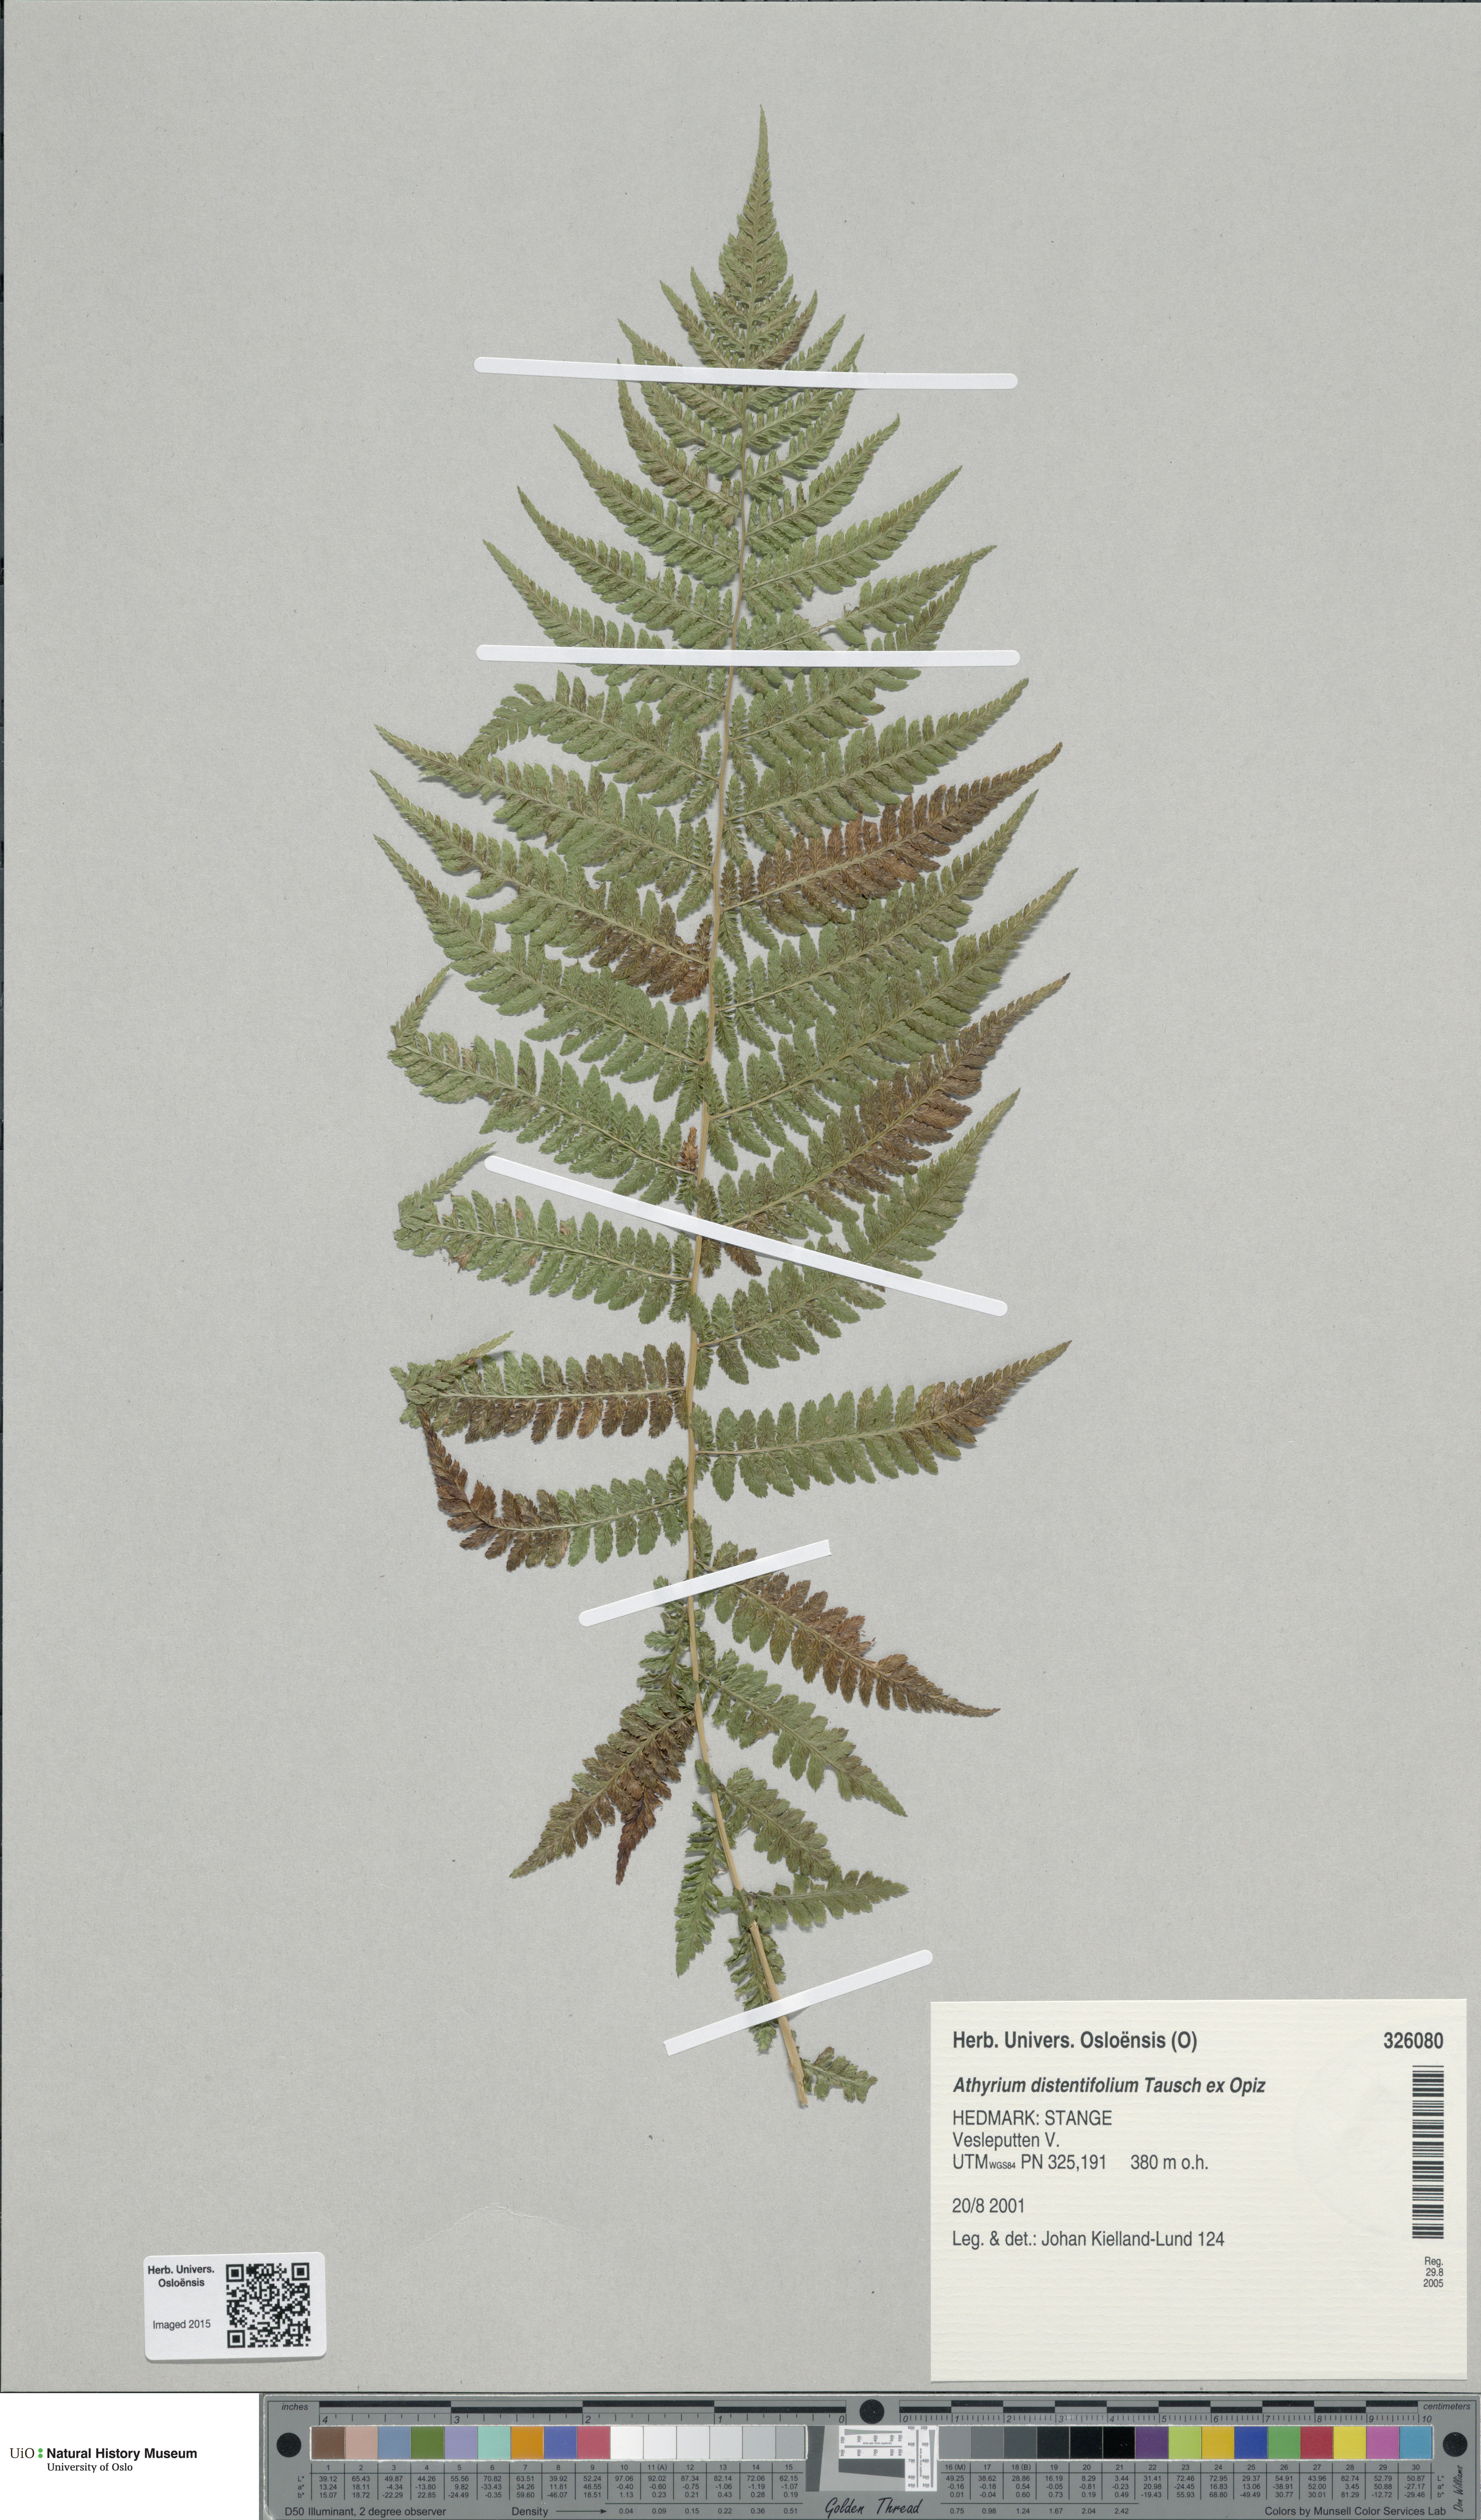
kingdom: Plantae
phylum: Tracheophyta
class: Polypodiopsida
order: Polypodiales
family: Athyriaceae
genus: Pseudathyrium
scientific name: Pseudathyrium alpestre
